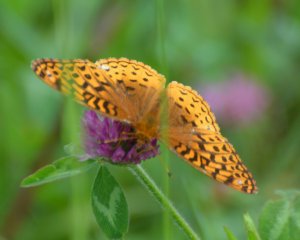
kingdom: Animalia
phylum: Arthropoda
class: Insecta
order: Lepidoptera
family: Nymphalidae
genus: Speyeria
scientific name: Speyeria cybele
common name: Great Spangled Fritillary
